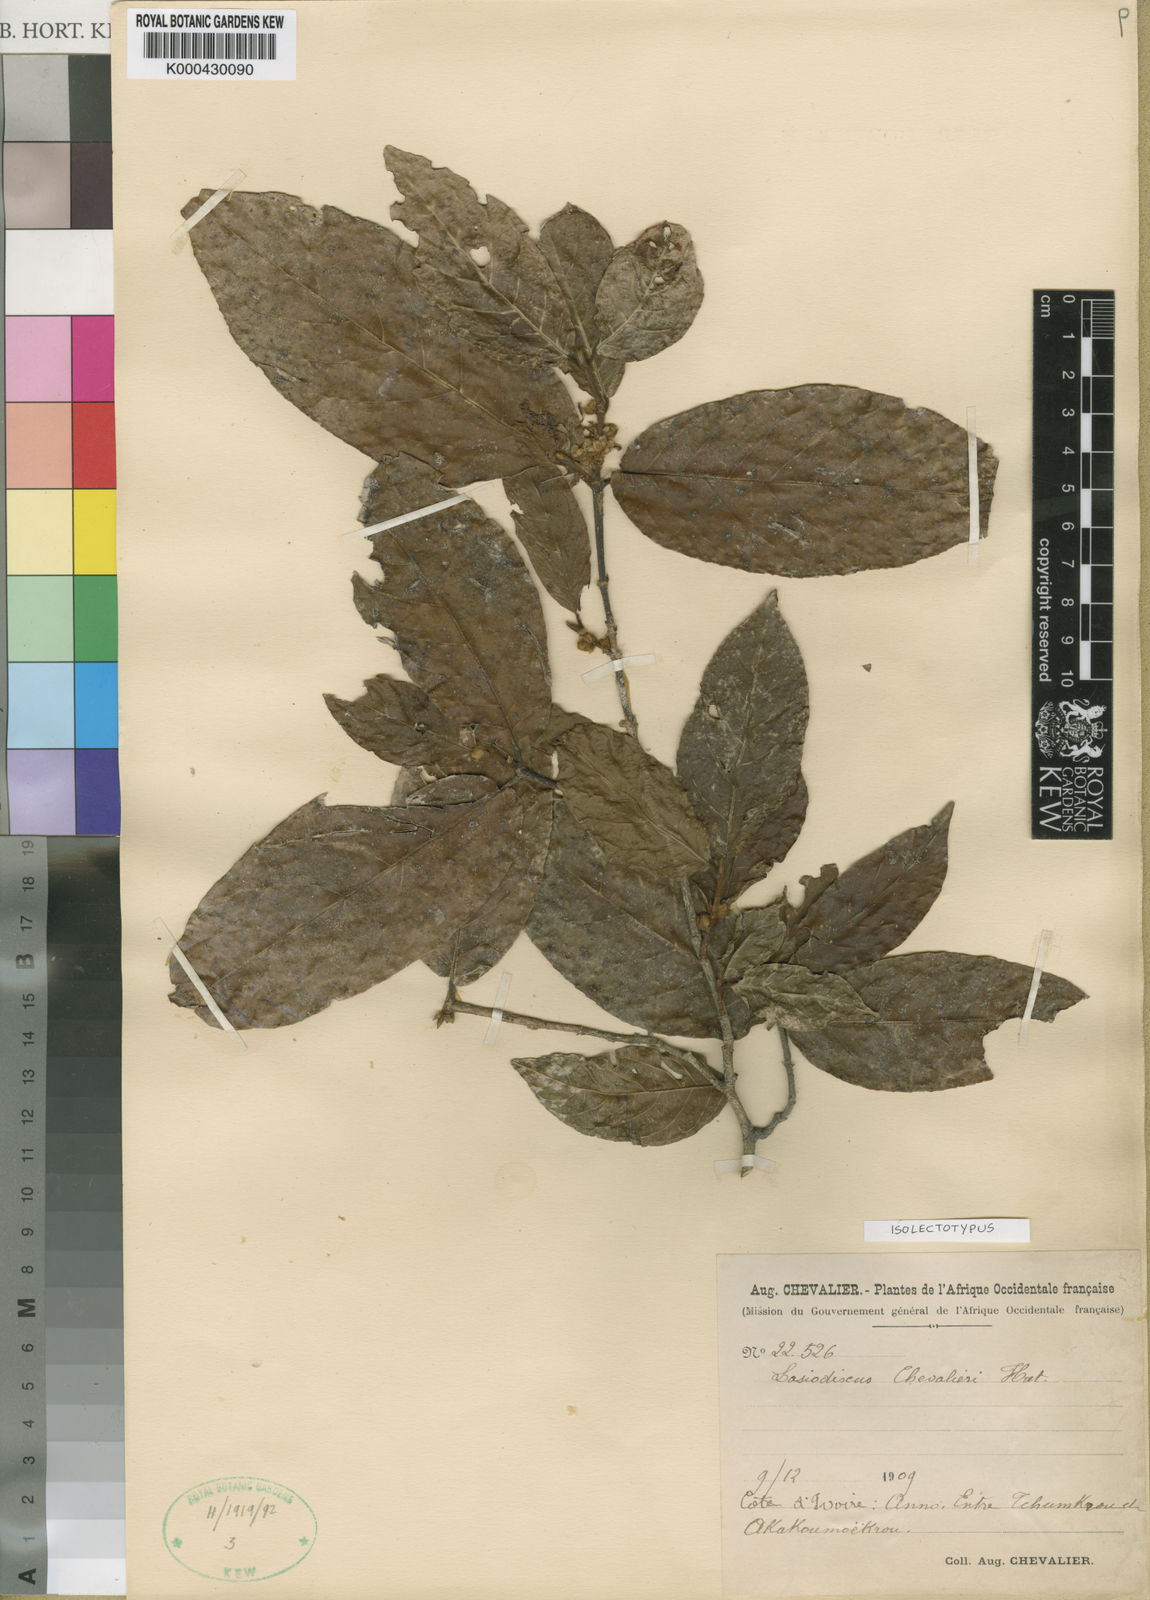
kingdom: Plantae
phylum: Tracheophyta
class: Magnoliopsida
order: Rosales
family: Rhamnaceae
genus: Lasiodiscus
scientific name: Lasiodiscus chevalieri
